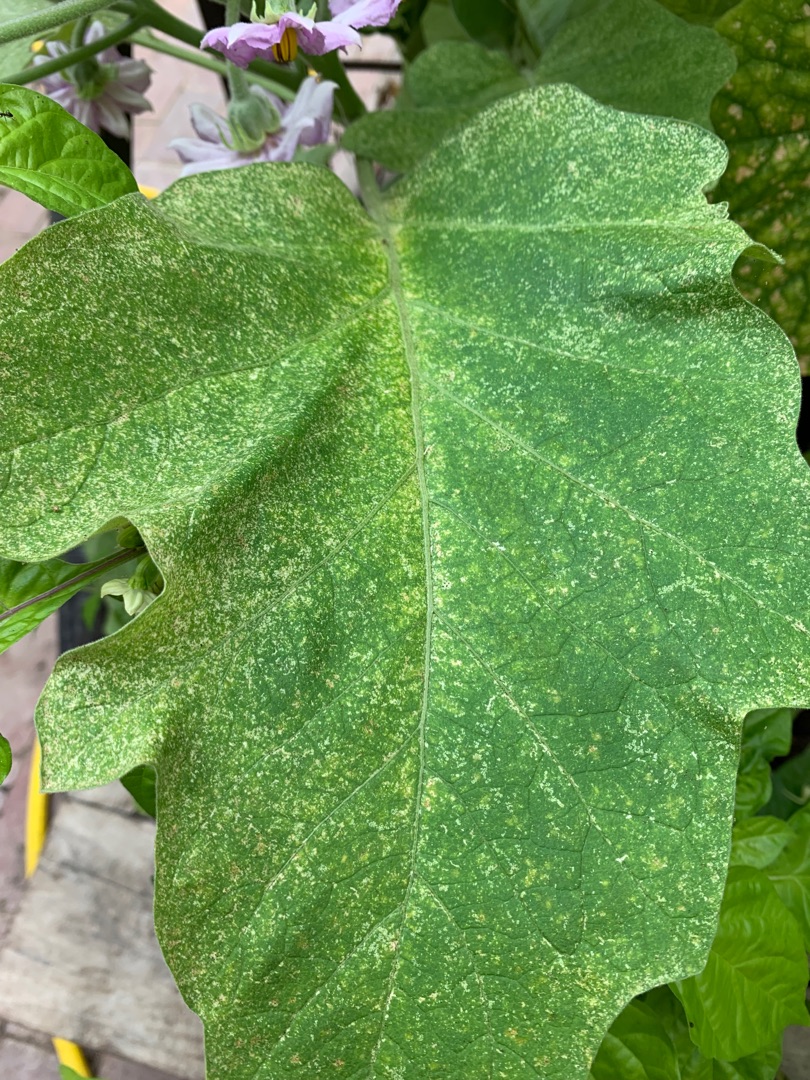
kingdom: Plantae
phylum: Tracheophyta
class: Magnoliopsida
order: Solanales
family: Solanaceae
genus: Solanum
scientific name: Solanum melongena
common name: Aubergine
